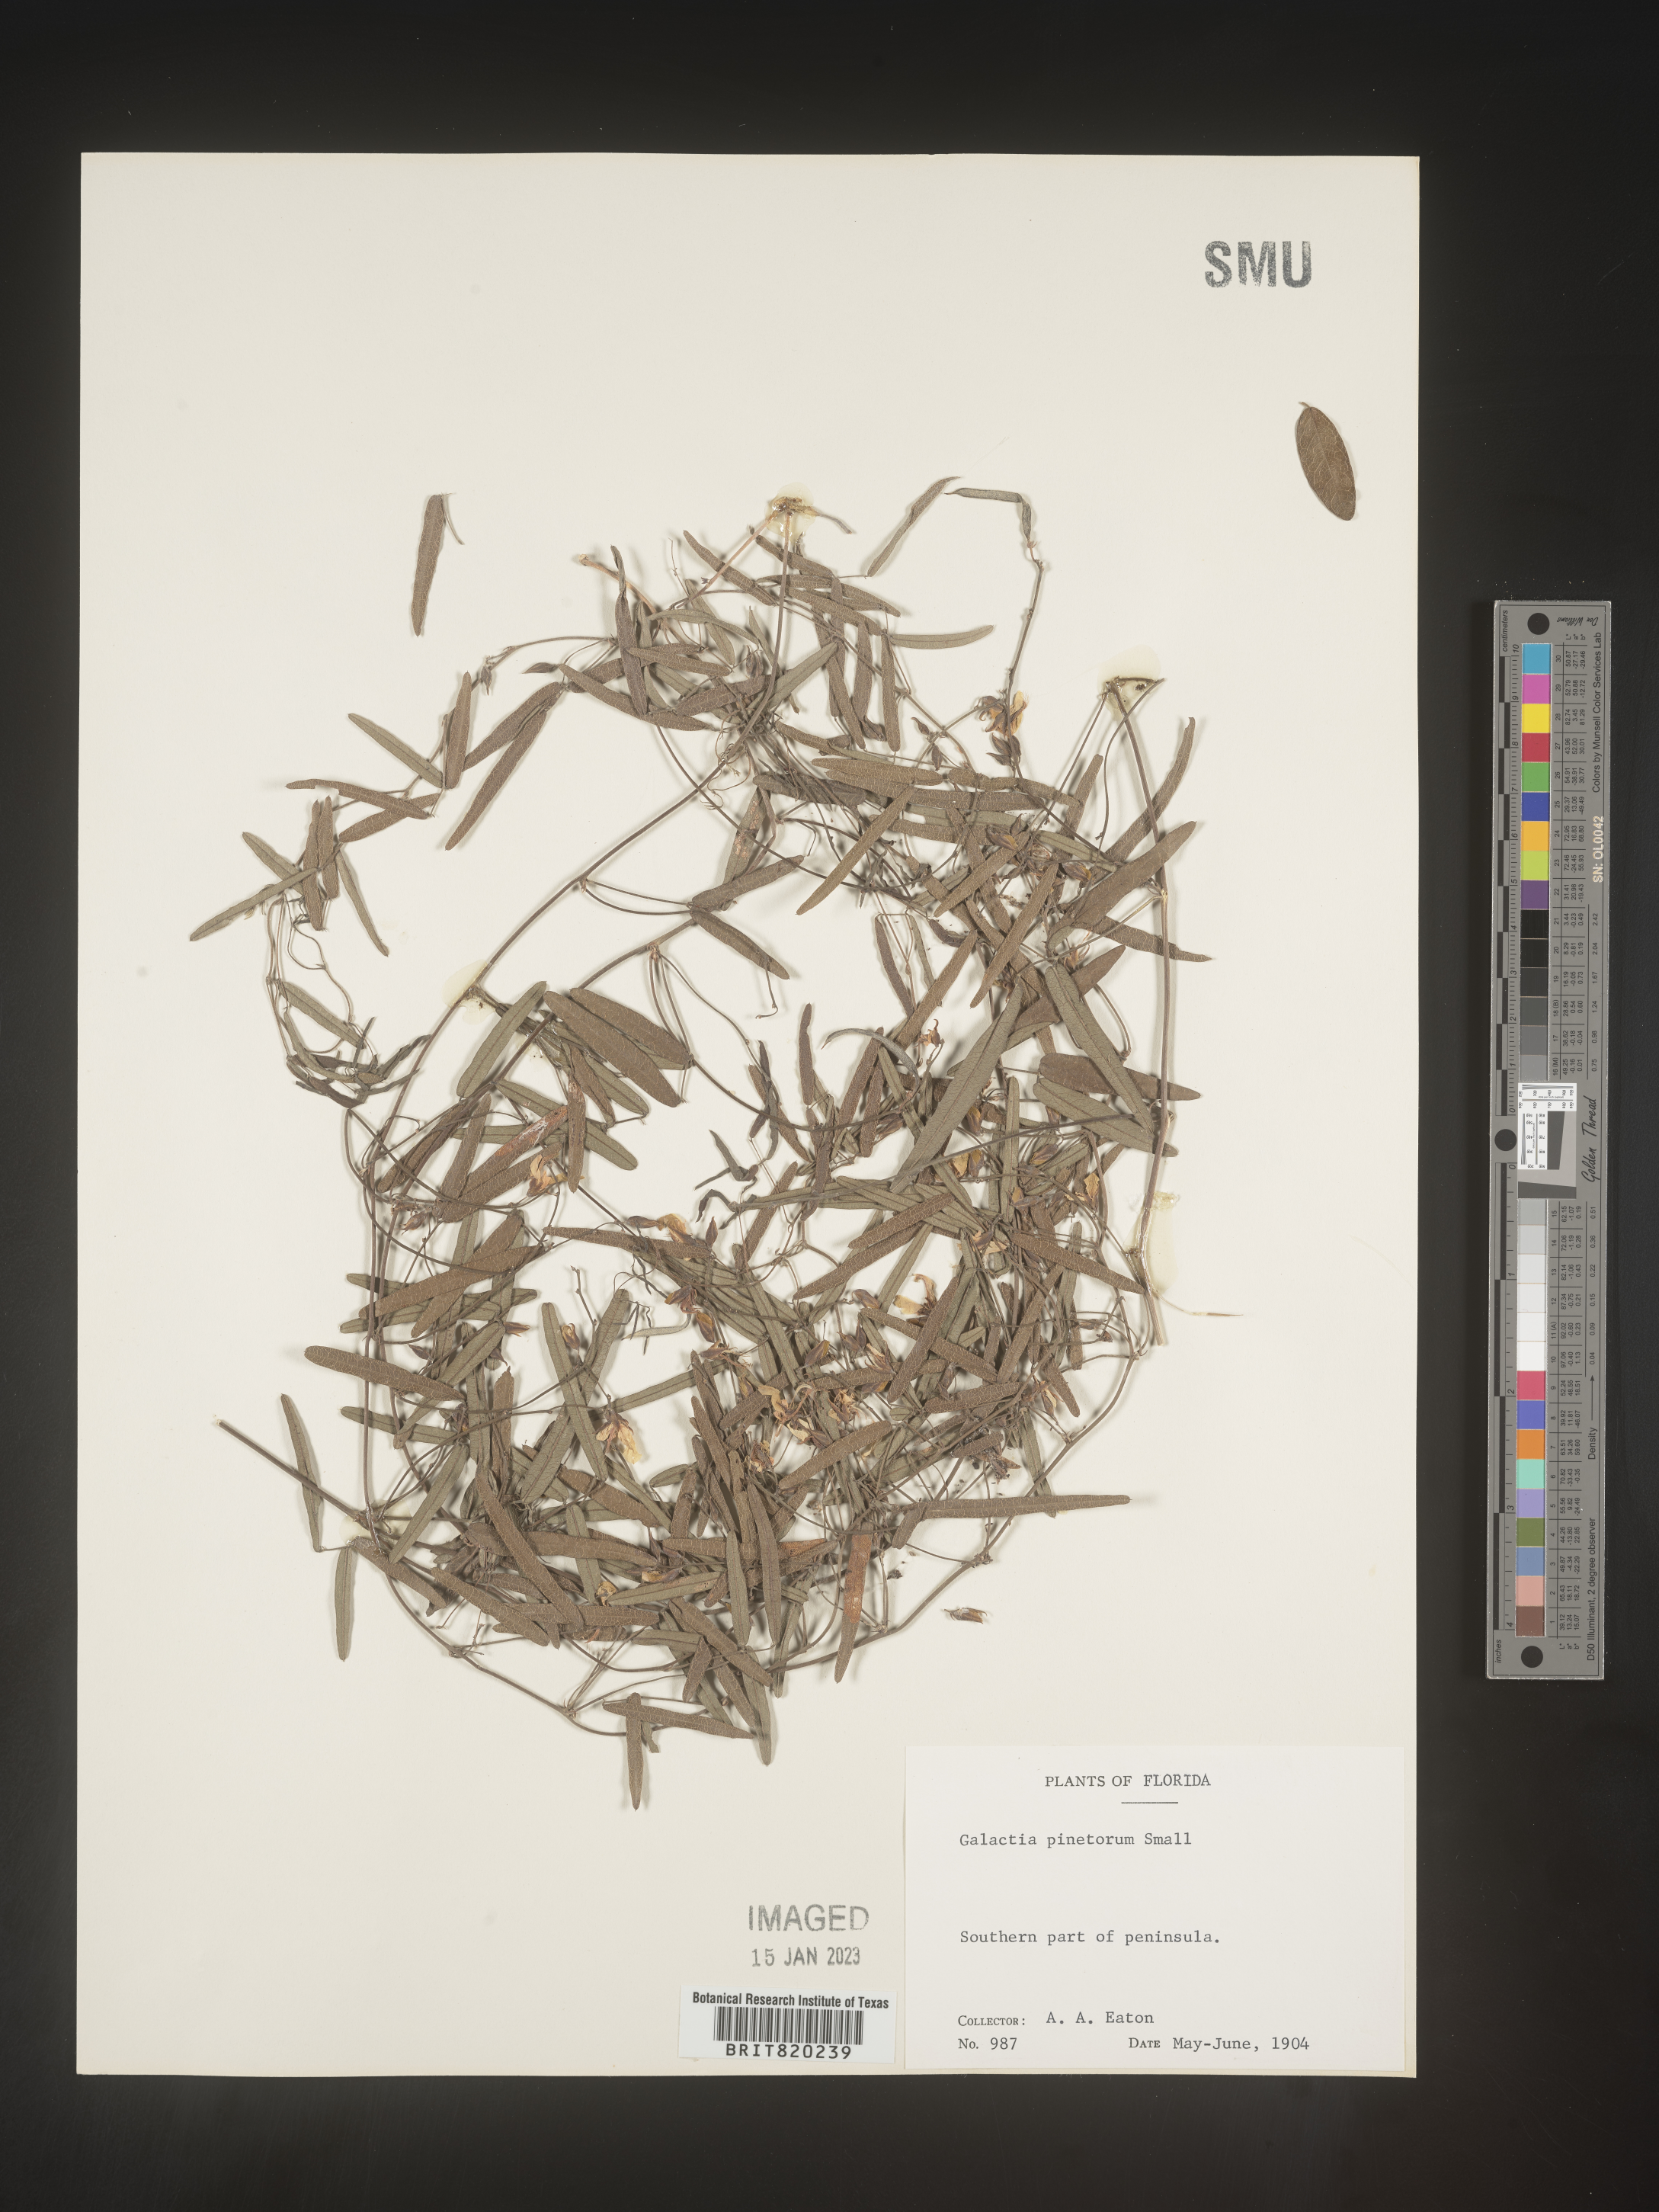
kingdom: Plantae
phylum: Tracheophyta
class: Magnoliopsida
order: Fabales
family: Fabaceae
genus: Galactia
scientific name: Galactia
